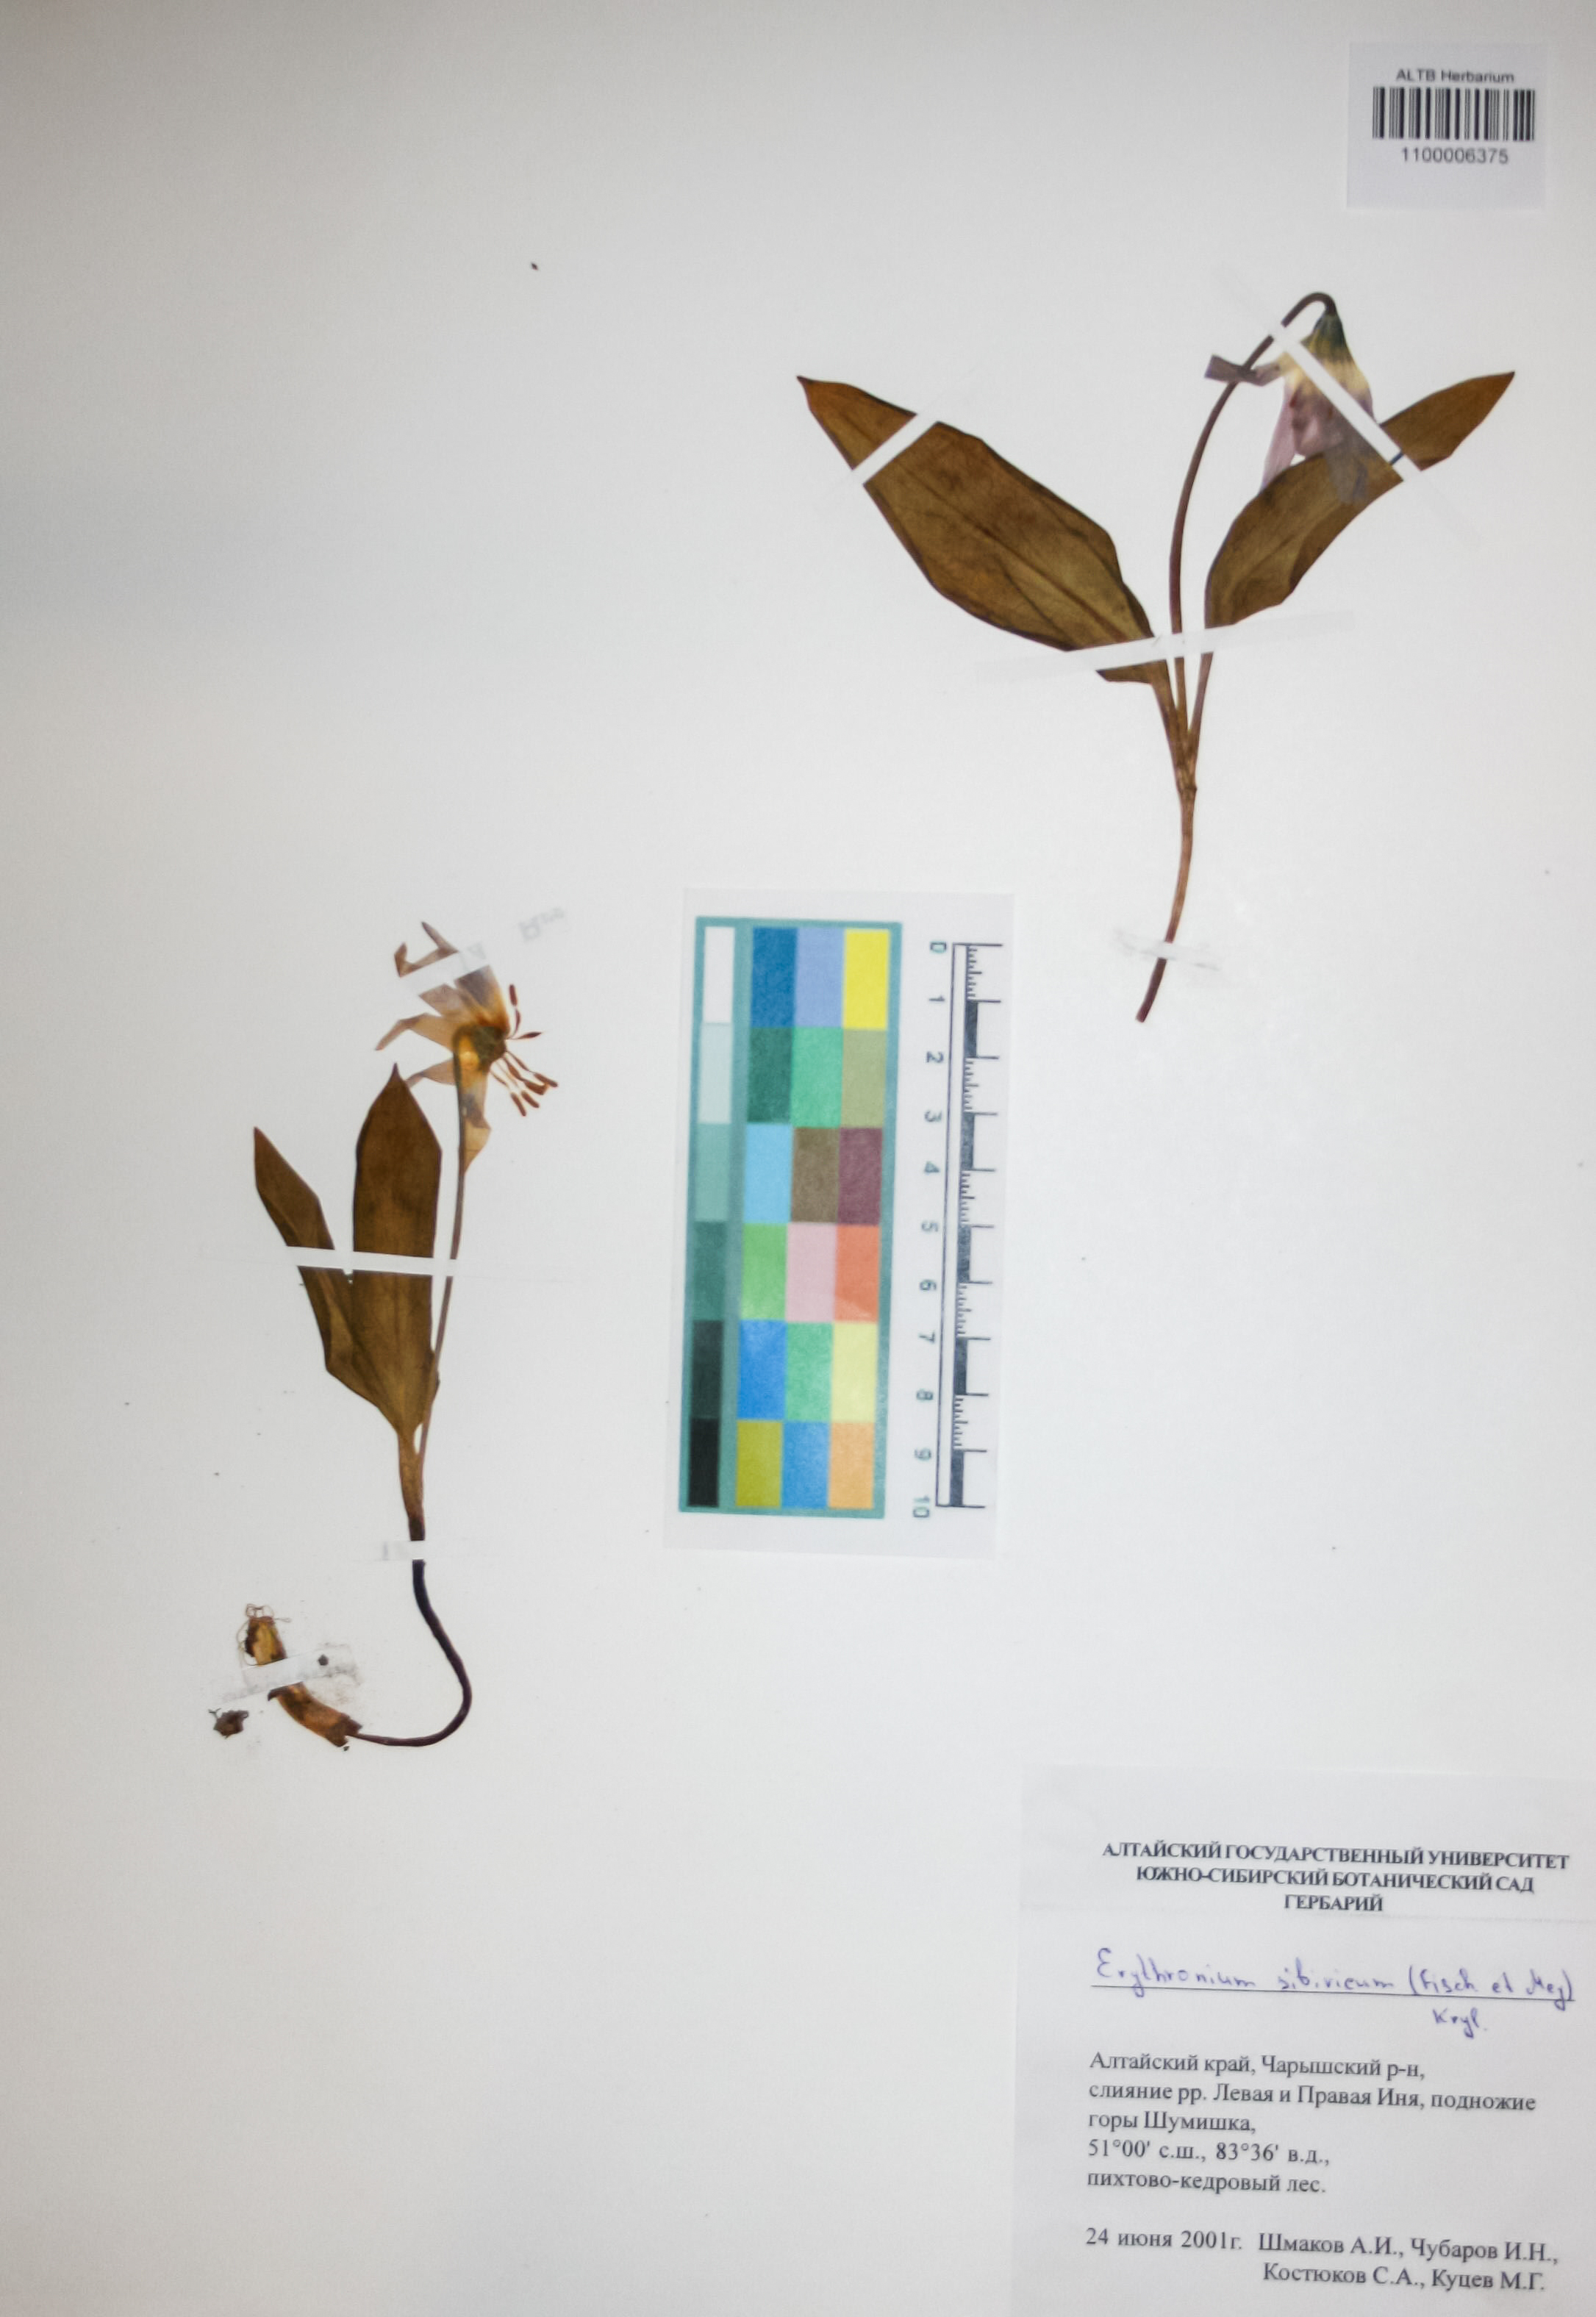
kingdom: Plantae
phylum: Tracheophyta
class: Liliopsida
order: Liliales
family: Liliaceae
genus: Erythronium
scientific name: Erythronium sibiricum
